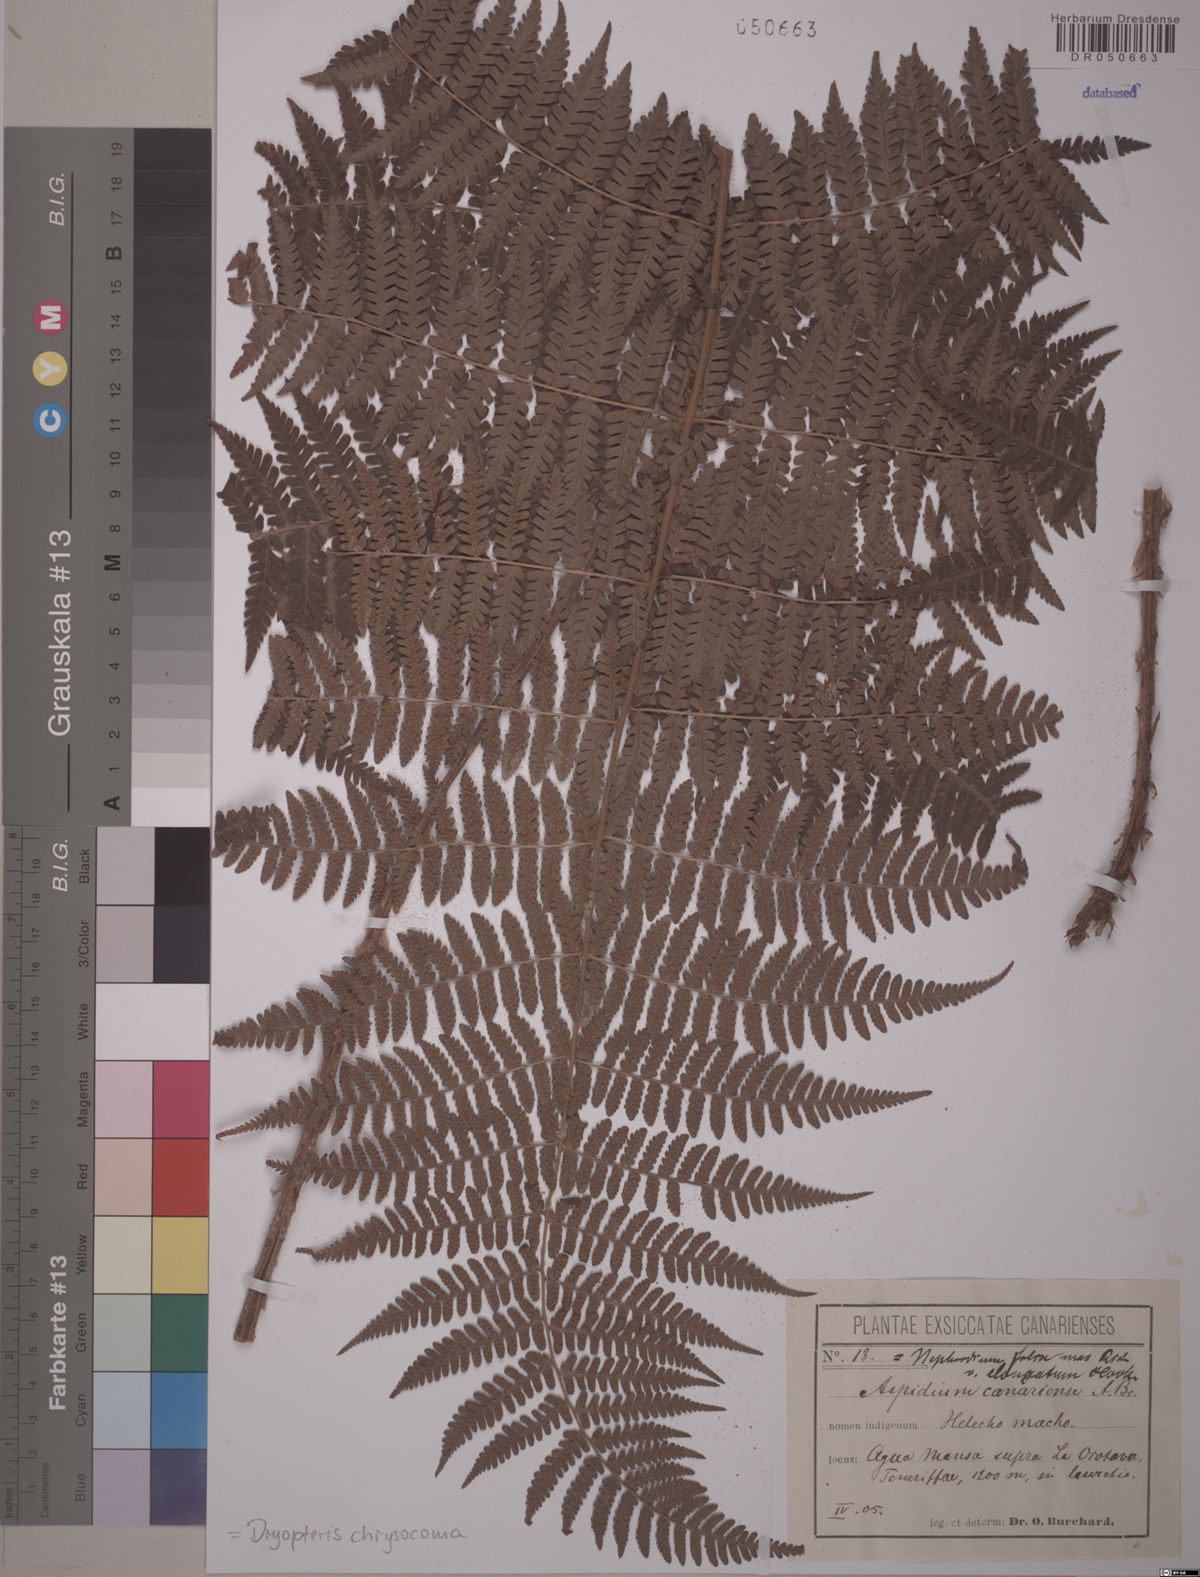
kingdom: Plantae
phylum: Tracheophyta
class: Polypodiopsida
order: Polypodiales
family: Dryopteridaceae
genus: Dryopteris
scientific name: Dryopteris chrysocoma
